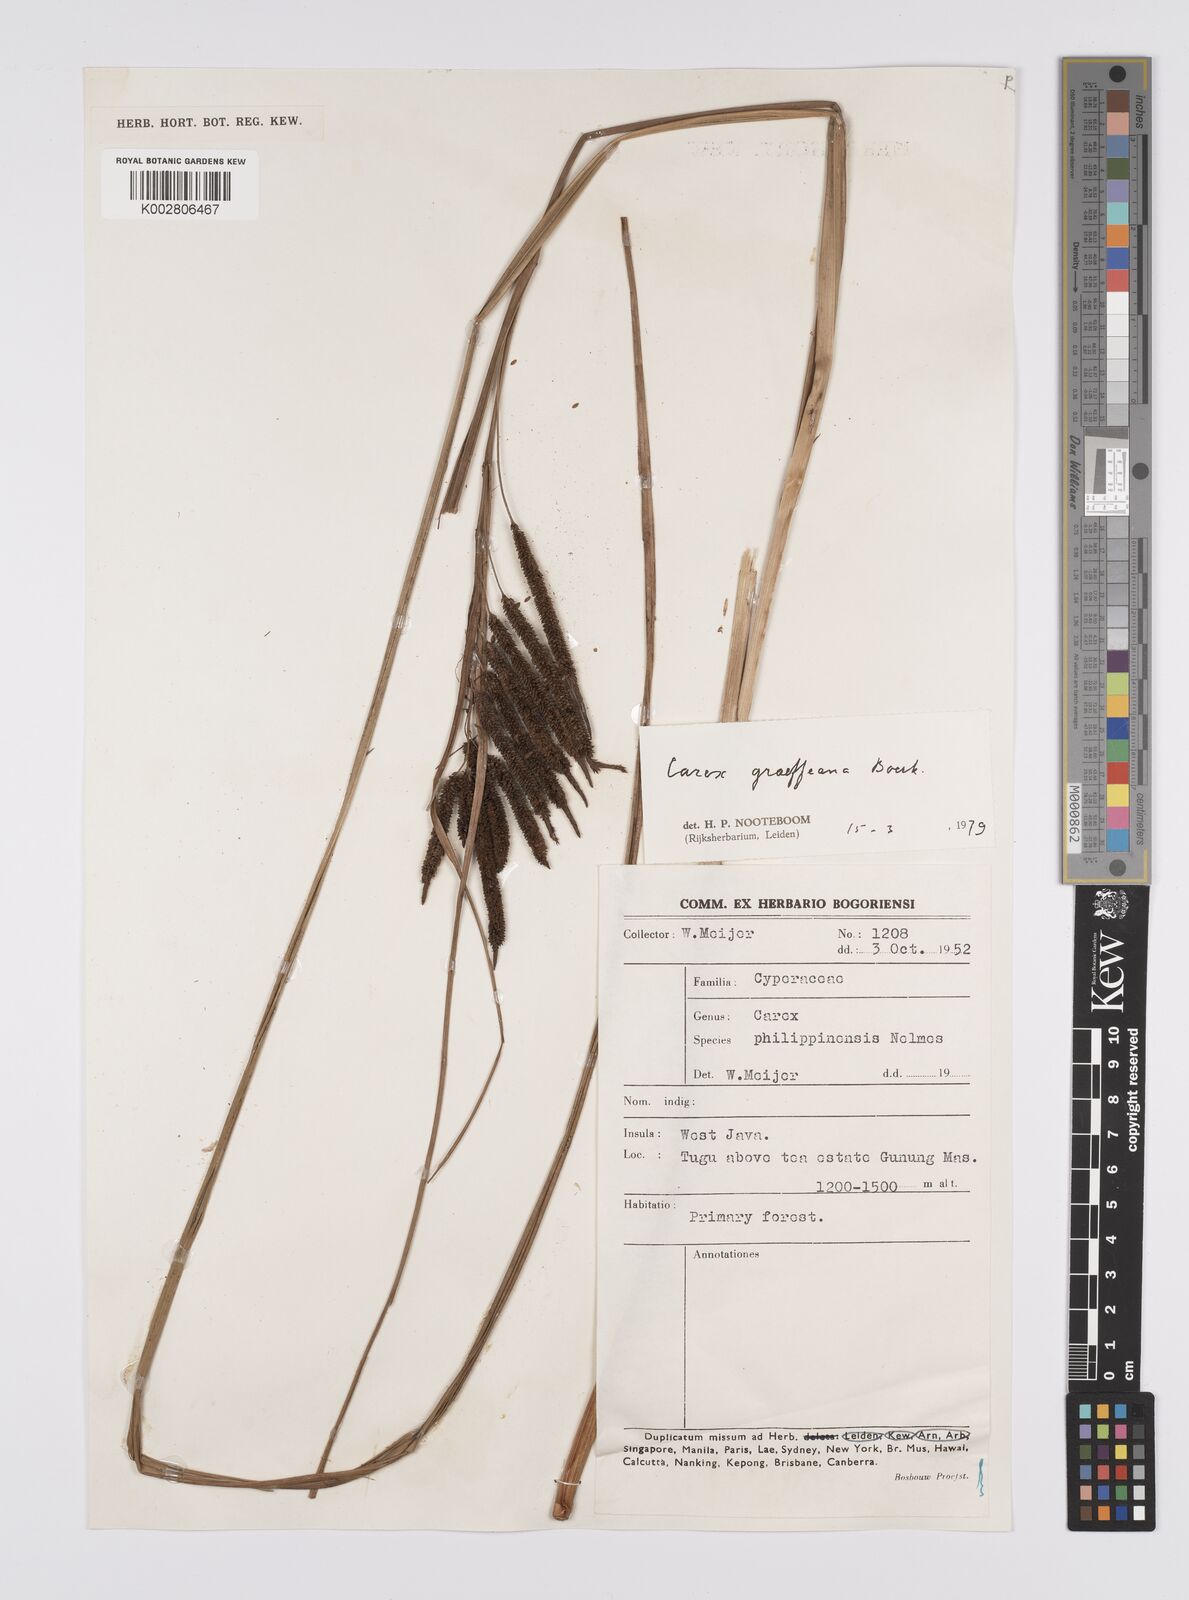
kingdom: Plantae
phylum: Tracheophyta
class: Liliopsida
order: Poales
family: Cyperaceae
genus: Carex
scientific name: Carex graeffeana
